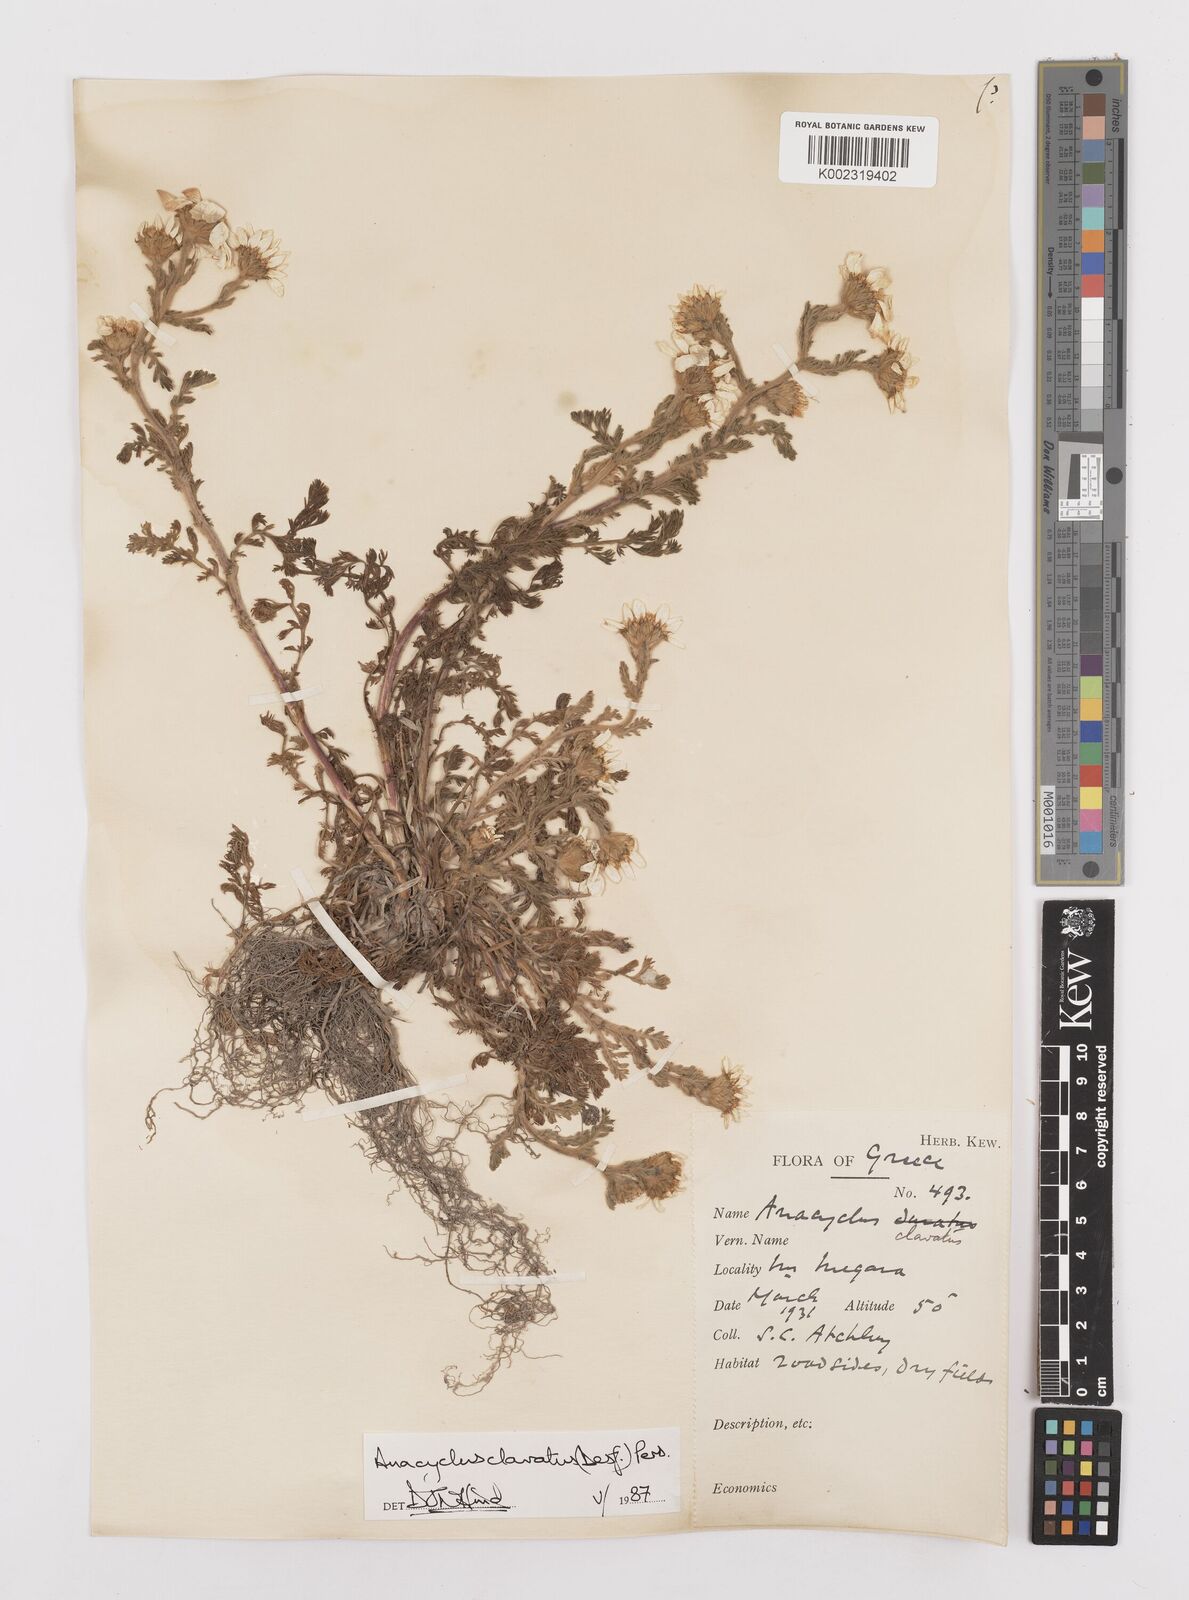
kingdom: Plantae
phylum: Tracheophyta
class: Magnoliopsida
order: Asterales
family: Asteraceae
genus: Anacyclus
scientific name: Anacyclus clavatus
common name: Whitebuttons
